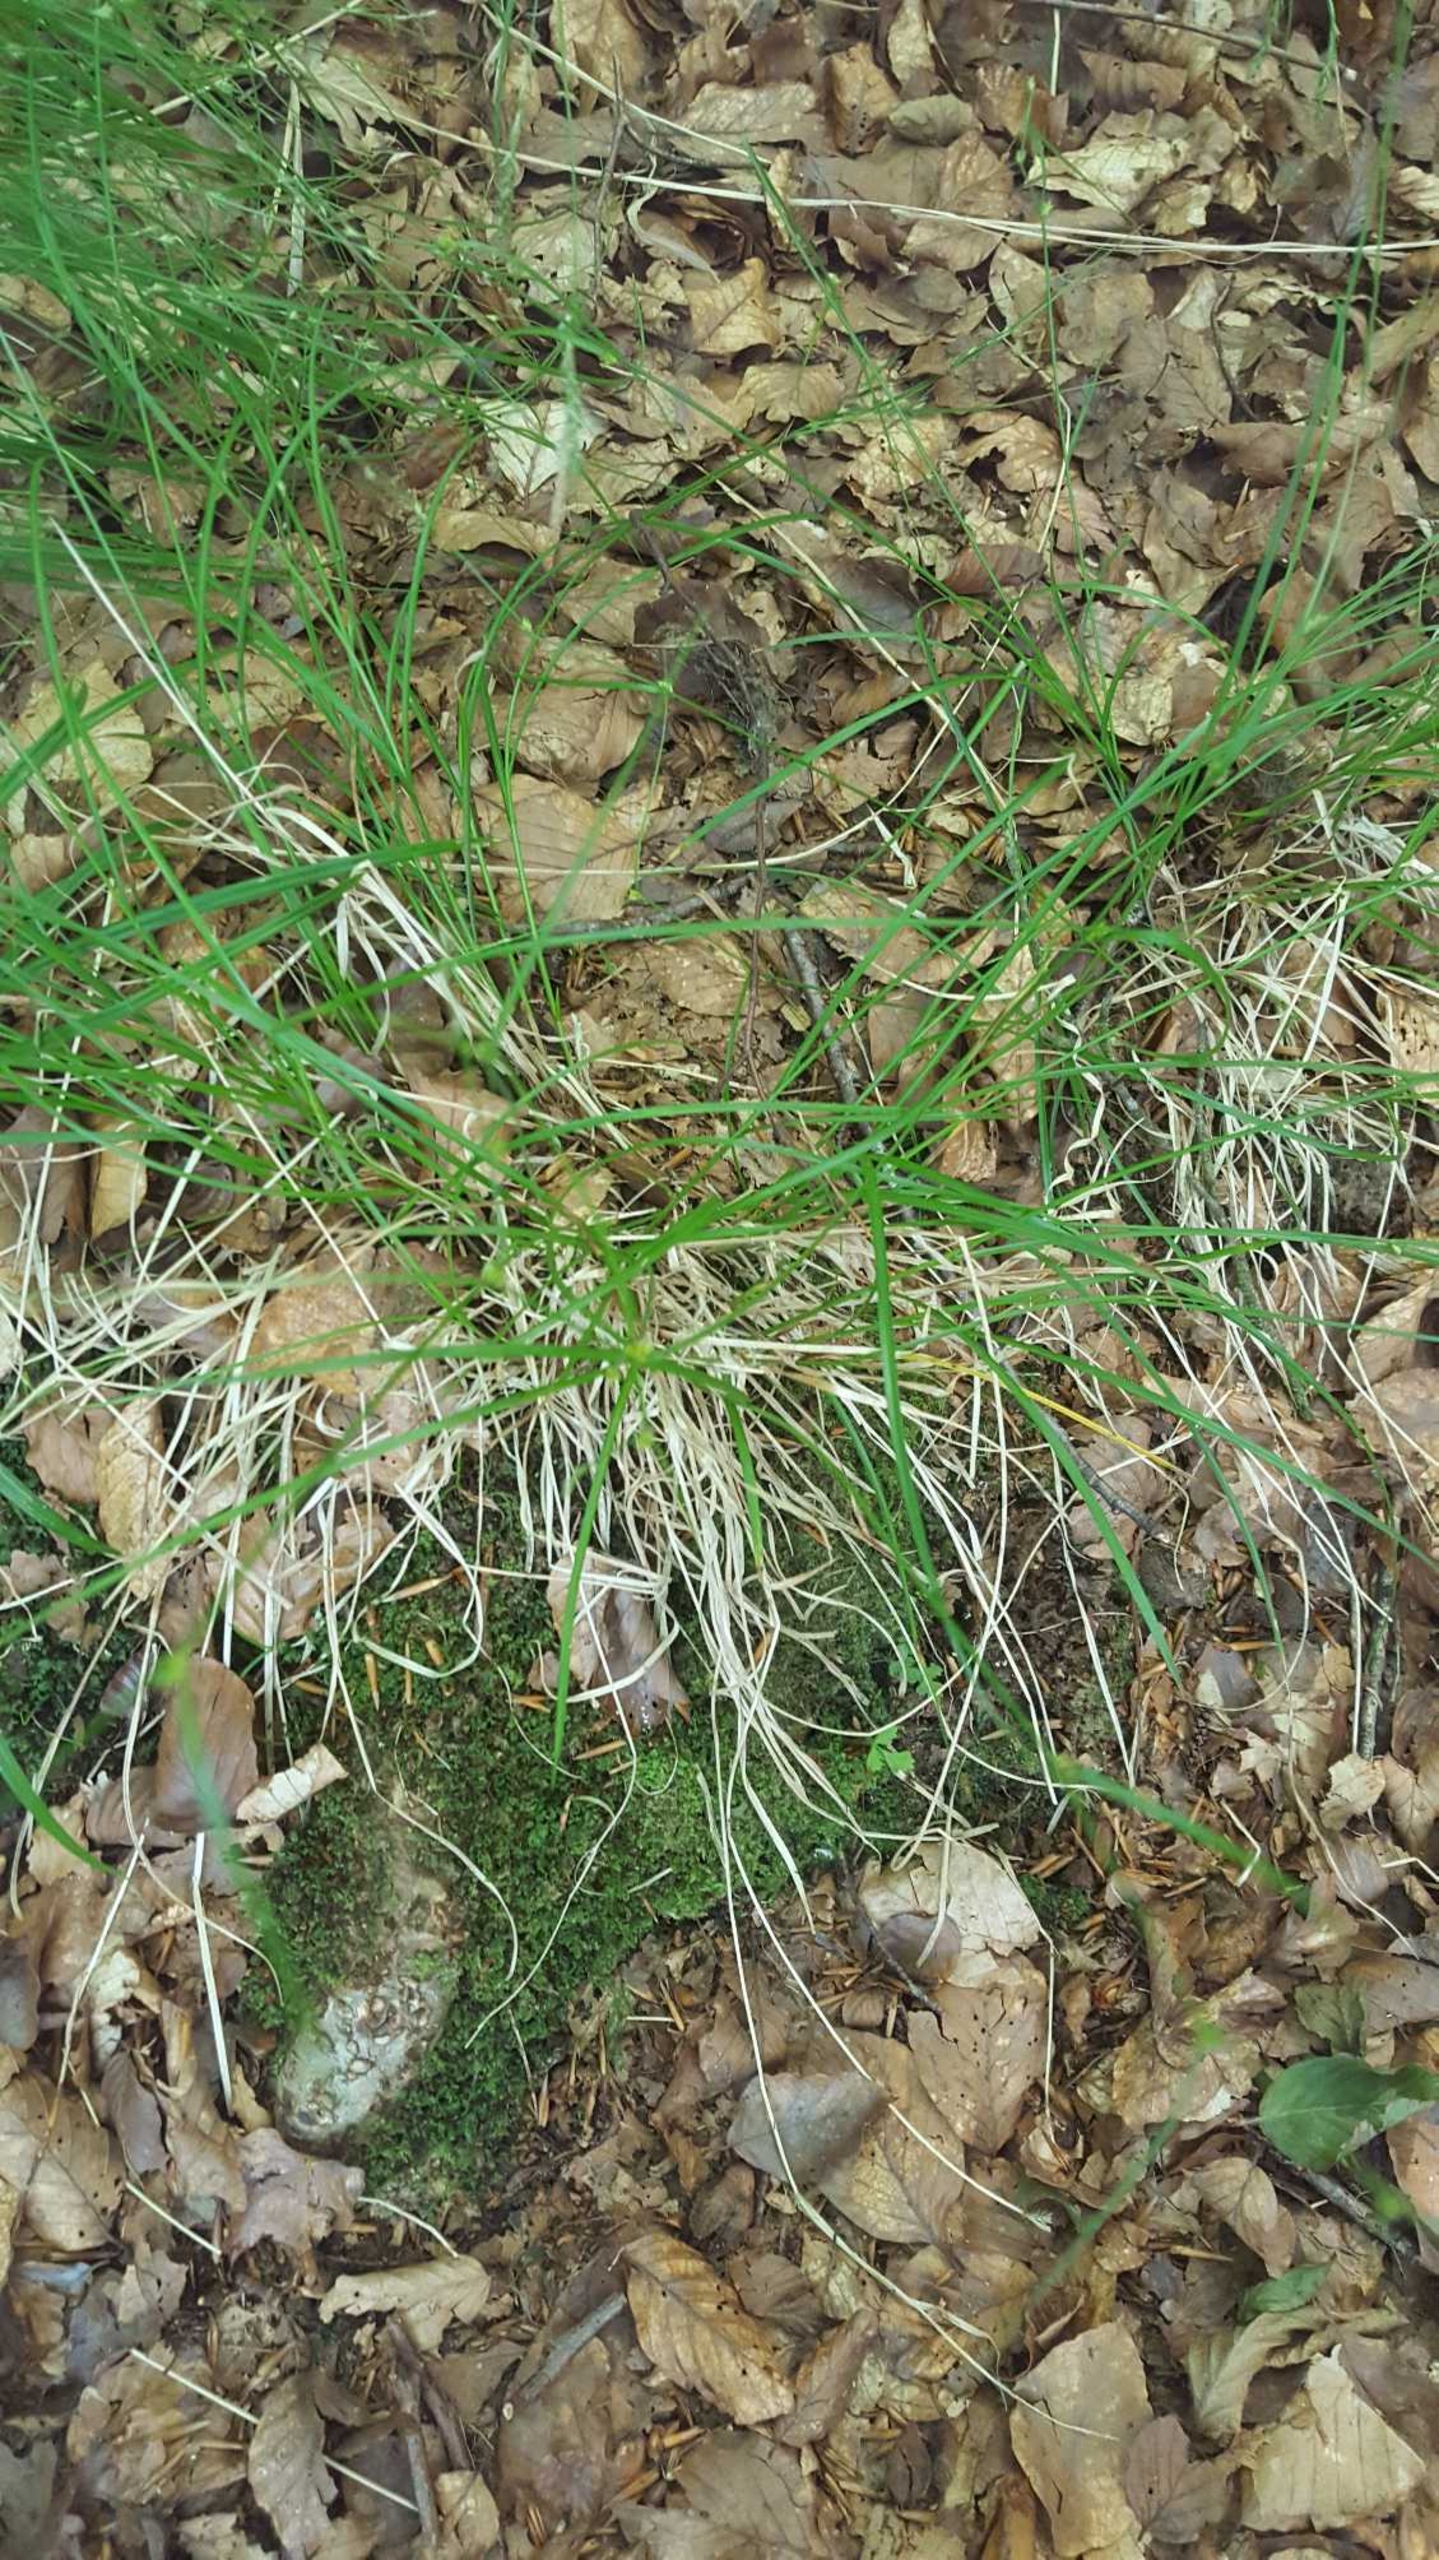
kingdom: Plantae
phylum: Tracheophyta
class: Liliopsida
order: Poales
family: Cyperaceae
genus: Carex
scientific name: Carex remota
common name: Akselblomstret star
